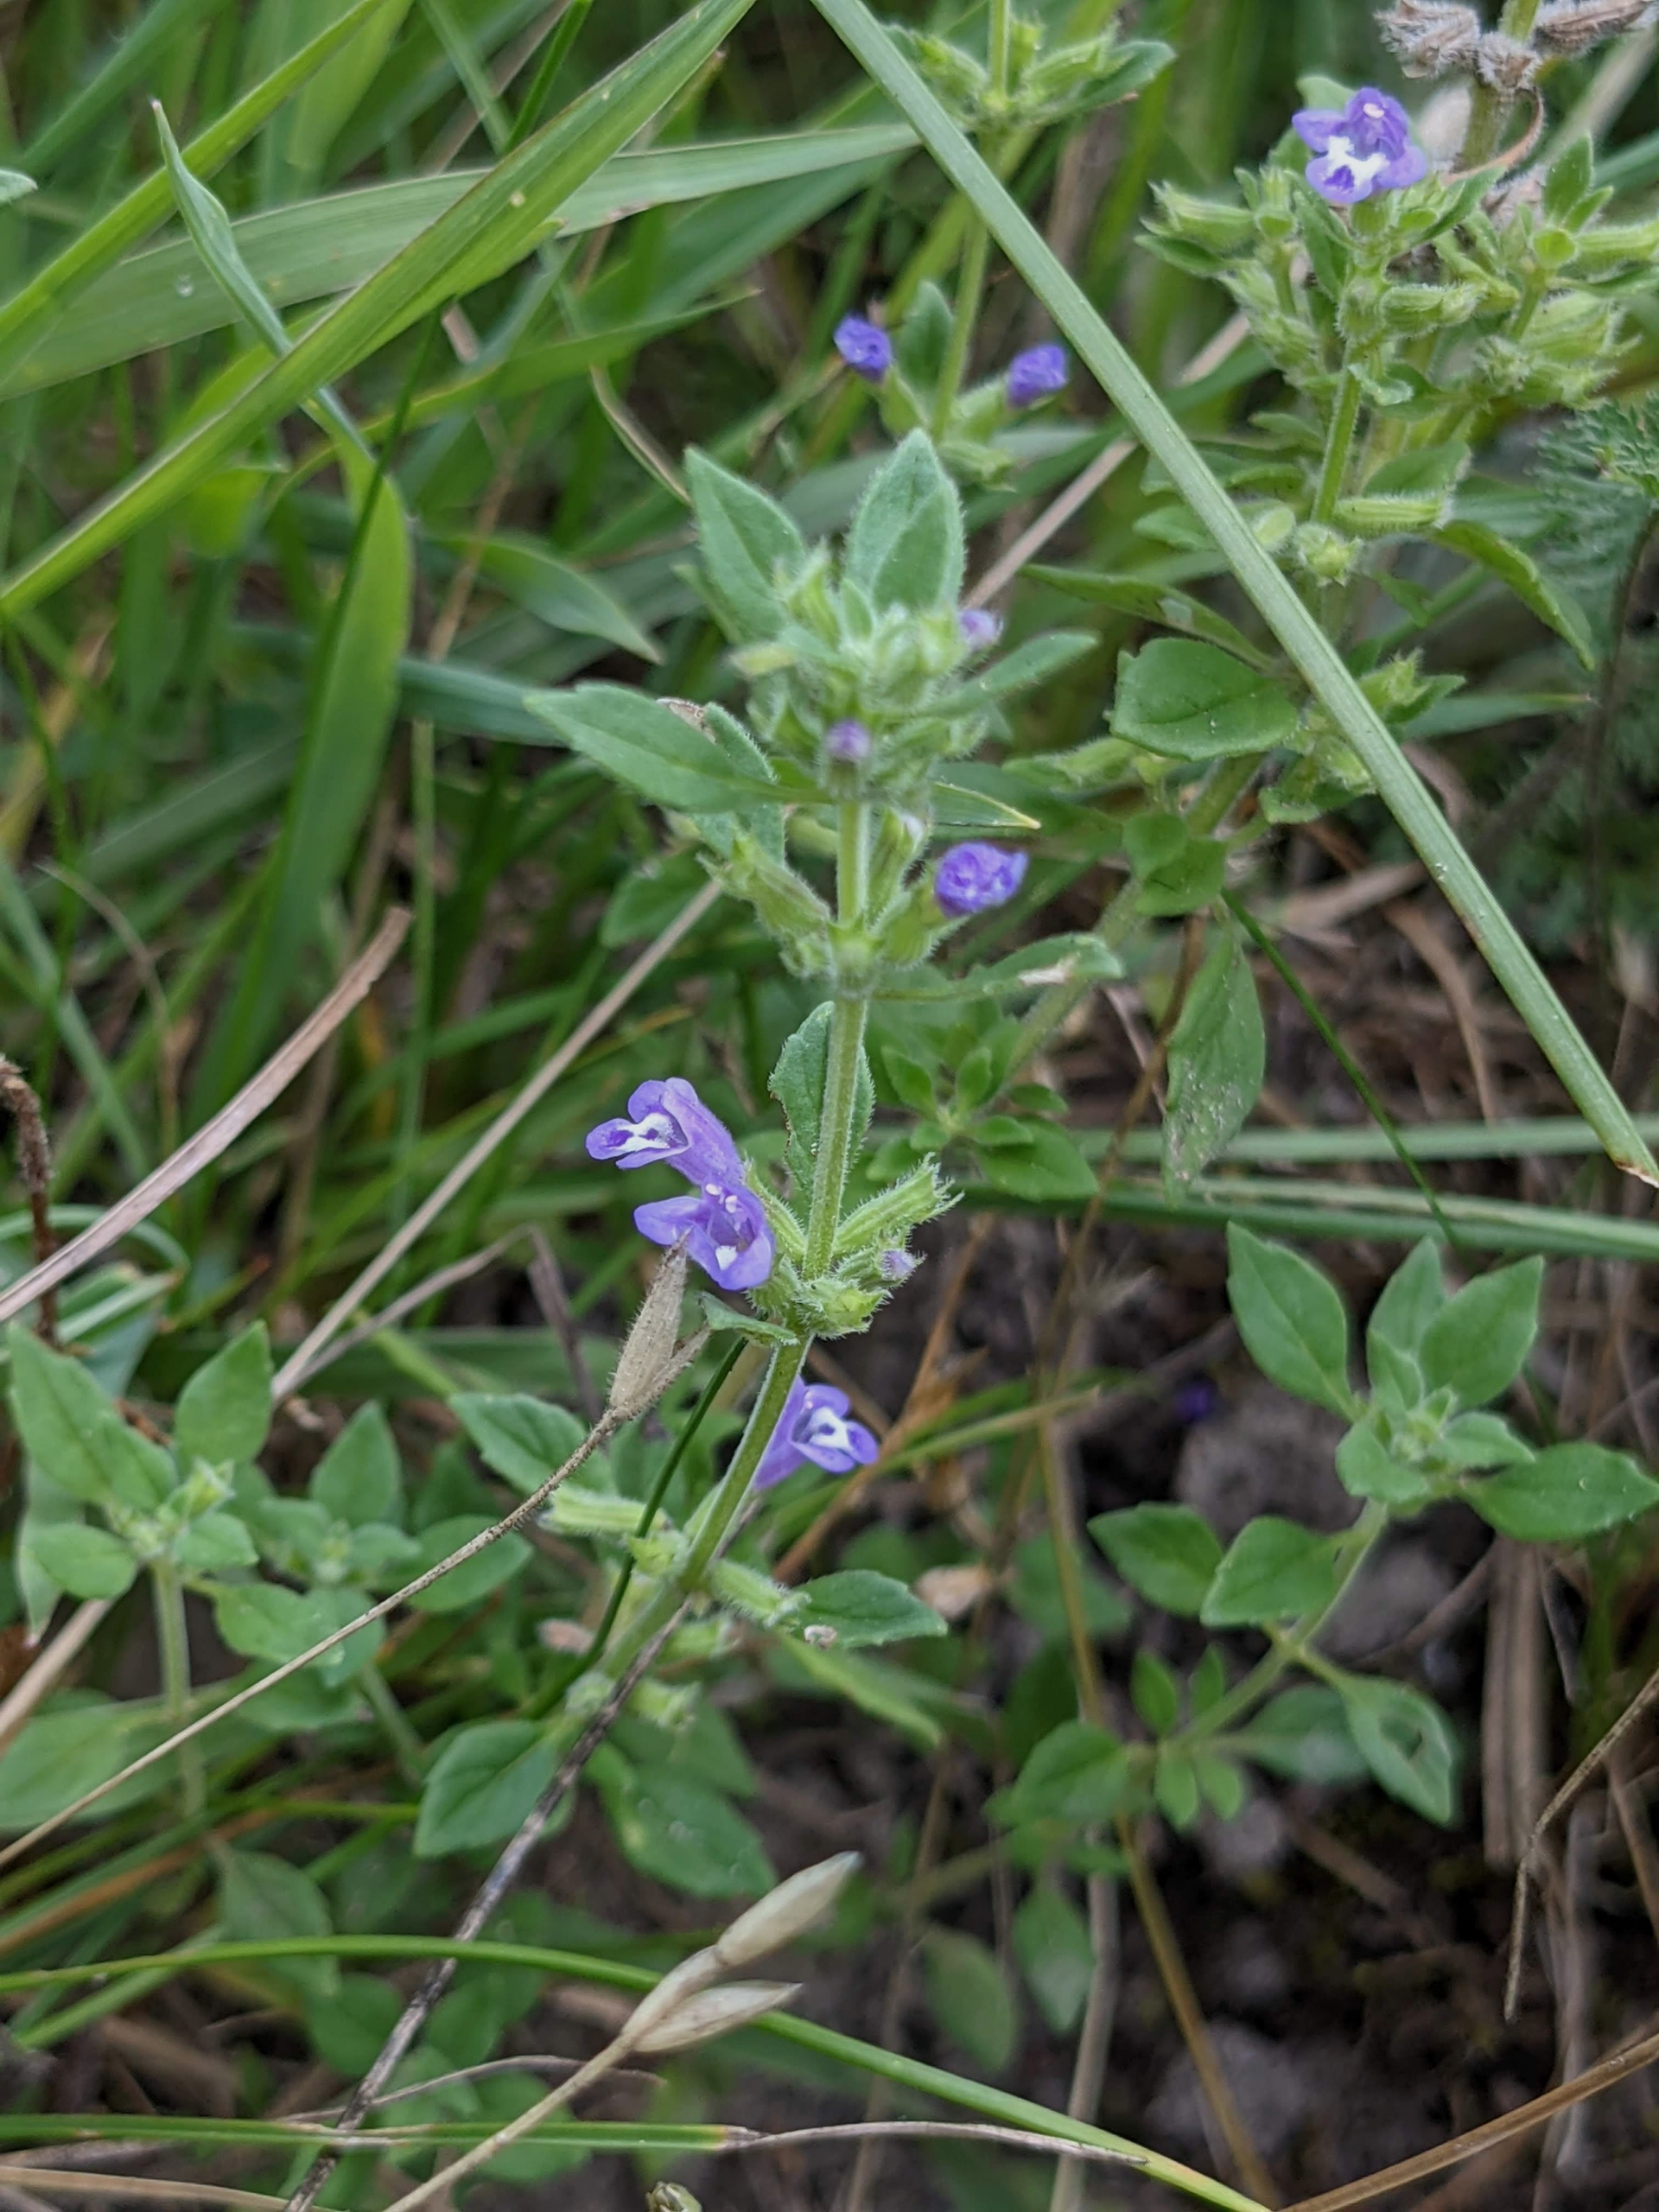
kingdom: Plantae
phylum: Tracheophyta
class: Magnoliopsida
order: Lamiales
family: Lamiaceae
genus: Clinopodium
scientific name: Clinopodium acinos
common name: Voldtimian
